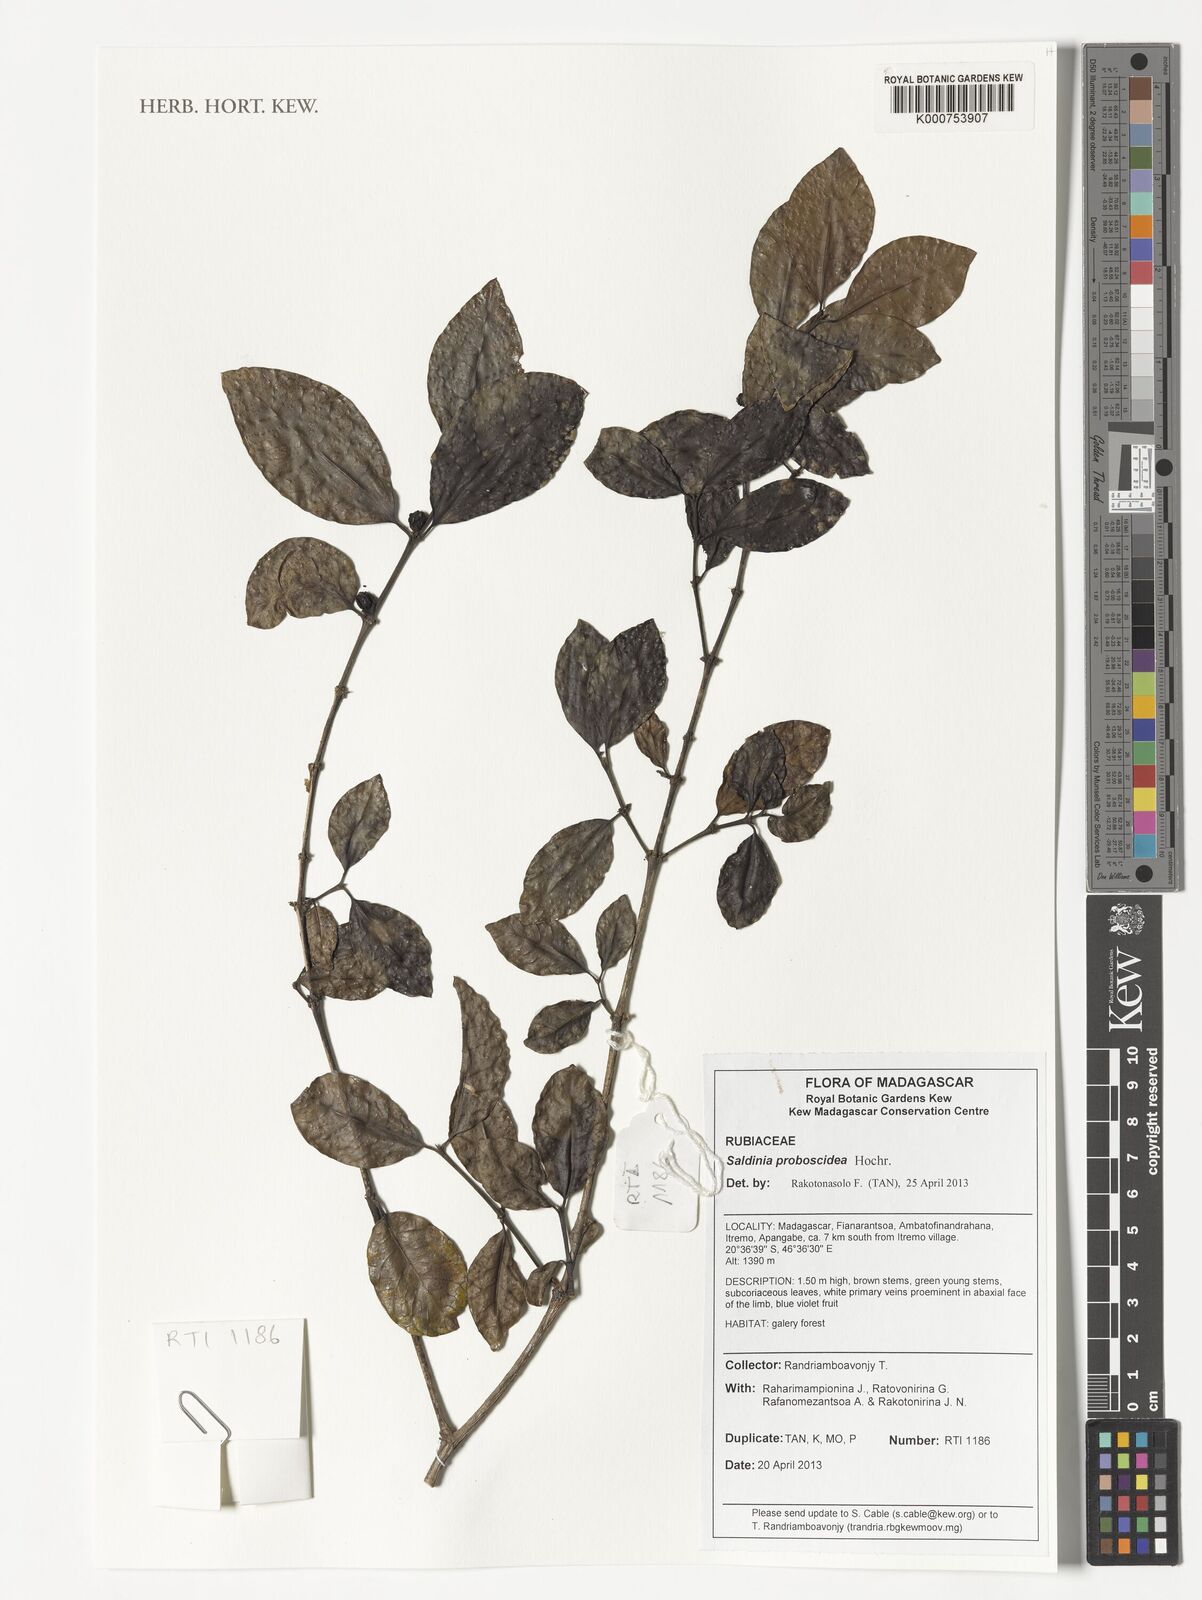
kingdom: Plantae
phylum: Tracheophyta
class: Magnoliopsida
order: Gentianales
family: Rubiaceae
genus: Saldinia
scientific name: Saldinia proboscidea
